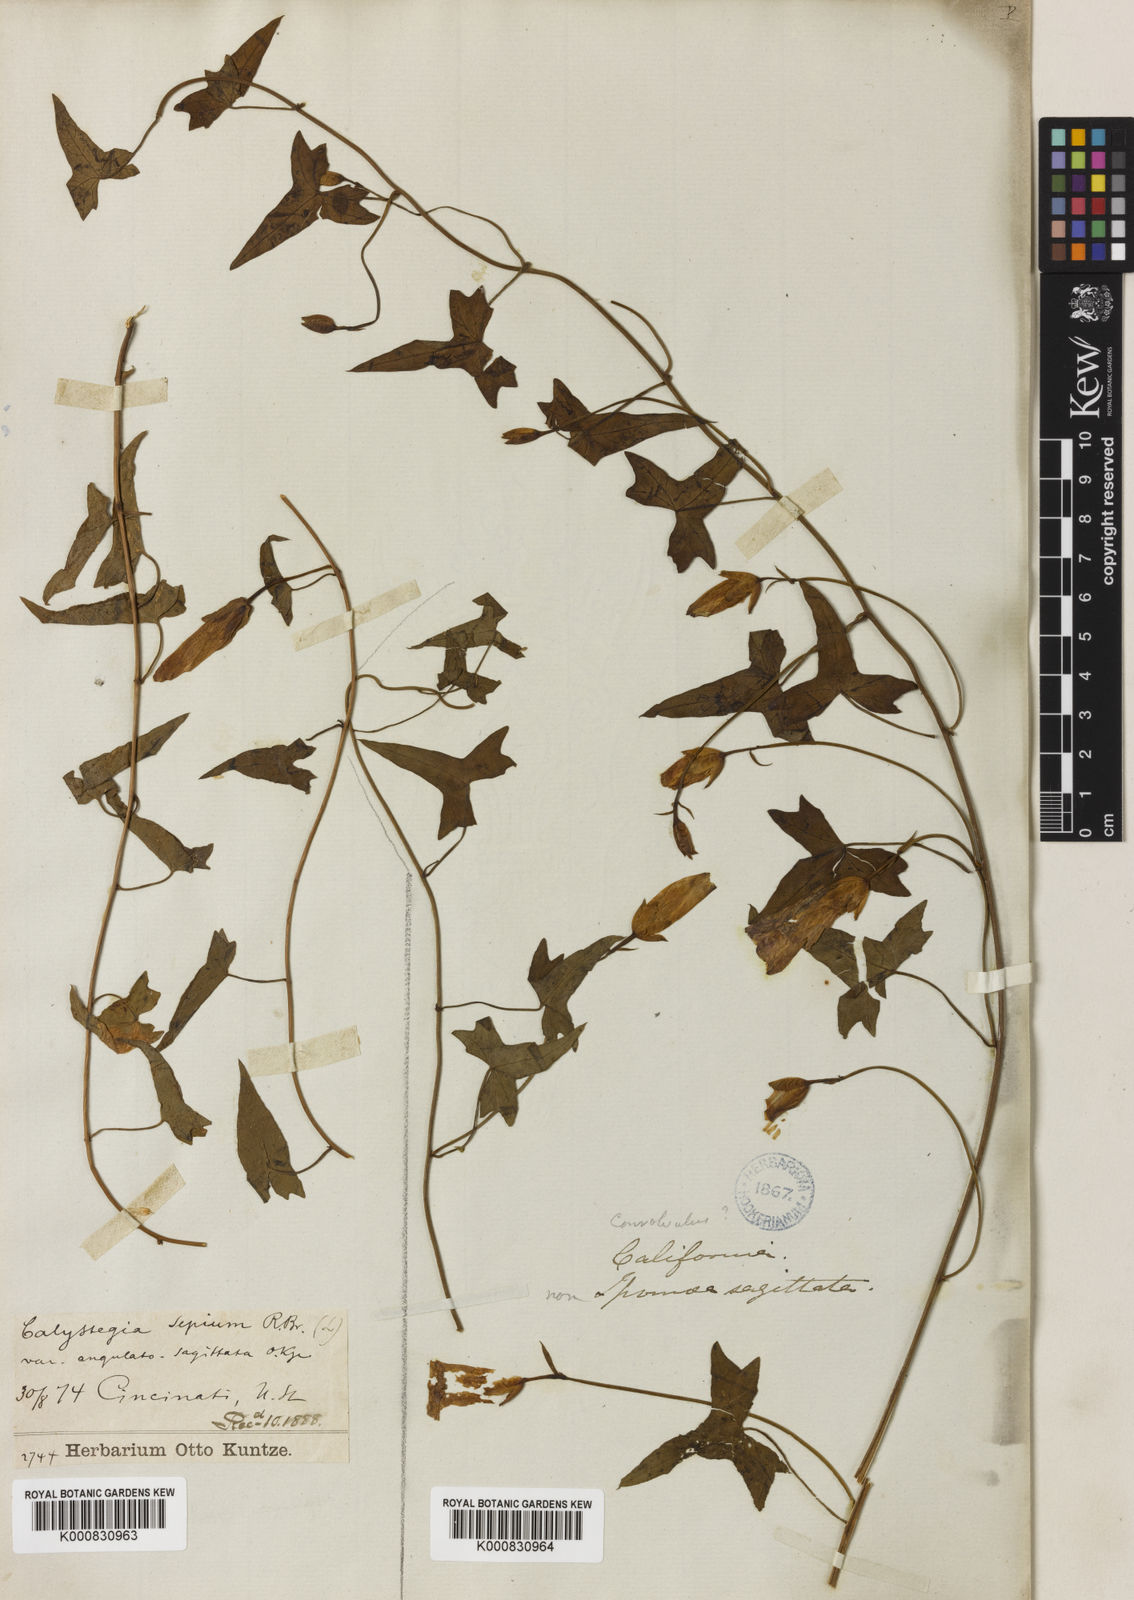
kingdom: Plantae
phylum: Tracheophyta
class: Magnoliopsida
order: Solanales
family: Convolvulaceae
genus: Calystegia
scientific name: Calystegia sepium
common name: Hedge bindweed
